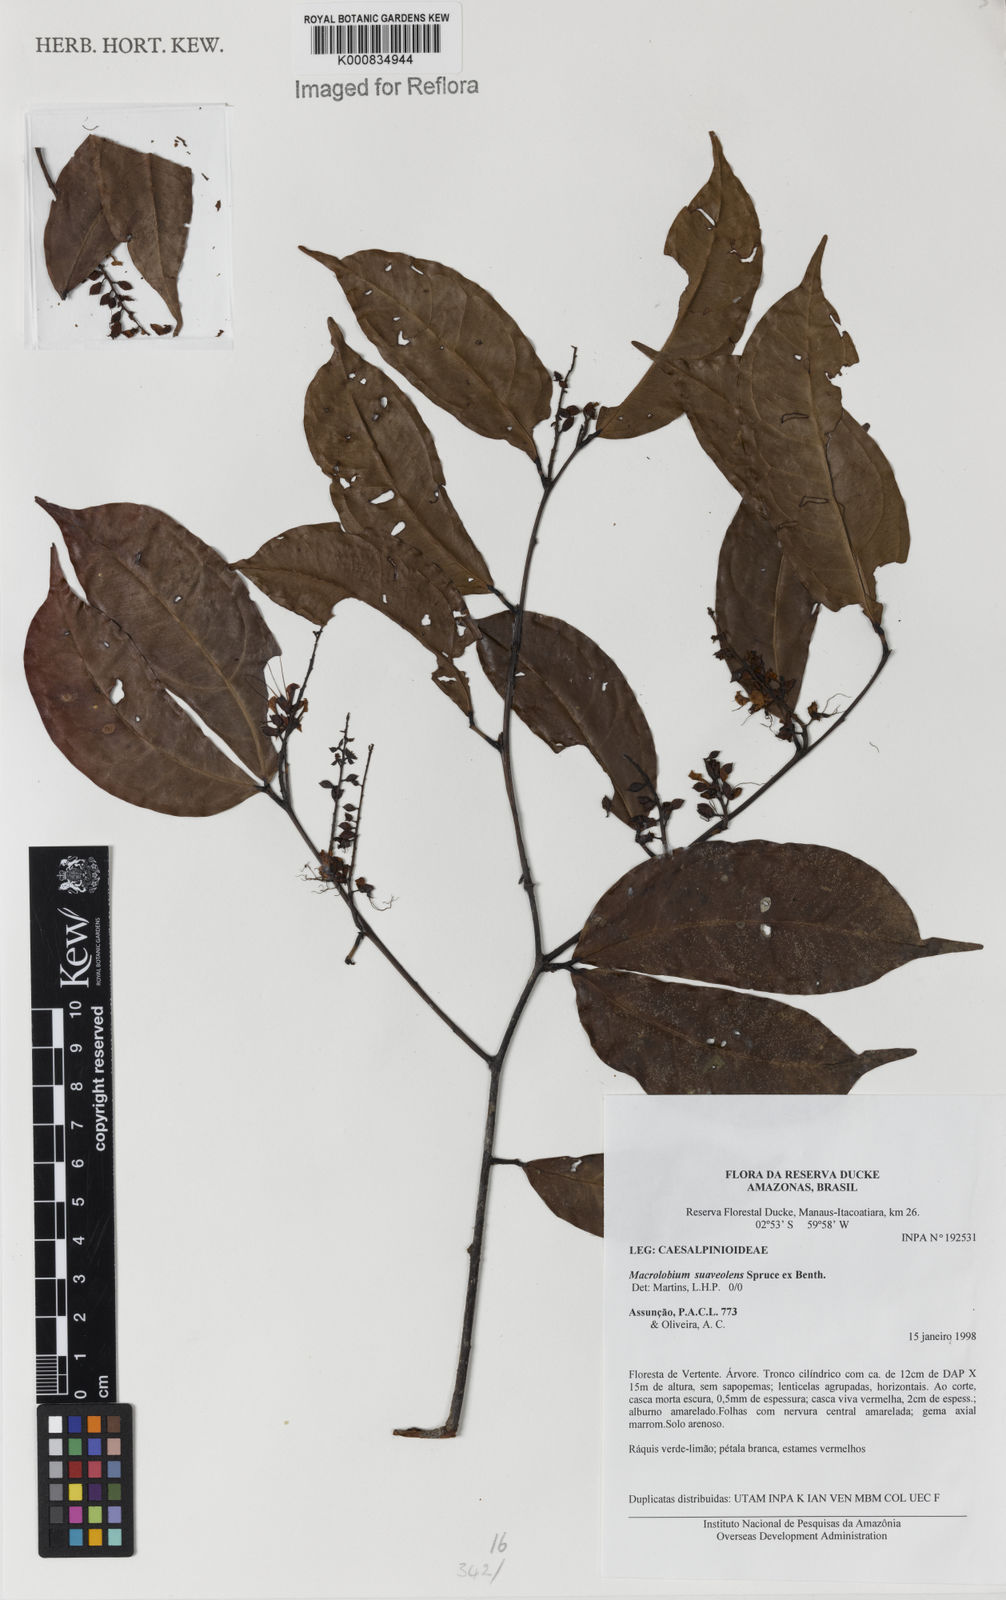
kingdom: Plantae
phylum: Tracheophyta
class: Magnoliopsida
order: Fabales
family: Fabaceae
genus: Macrolobium
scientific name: Macrolobium suaveolens
